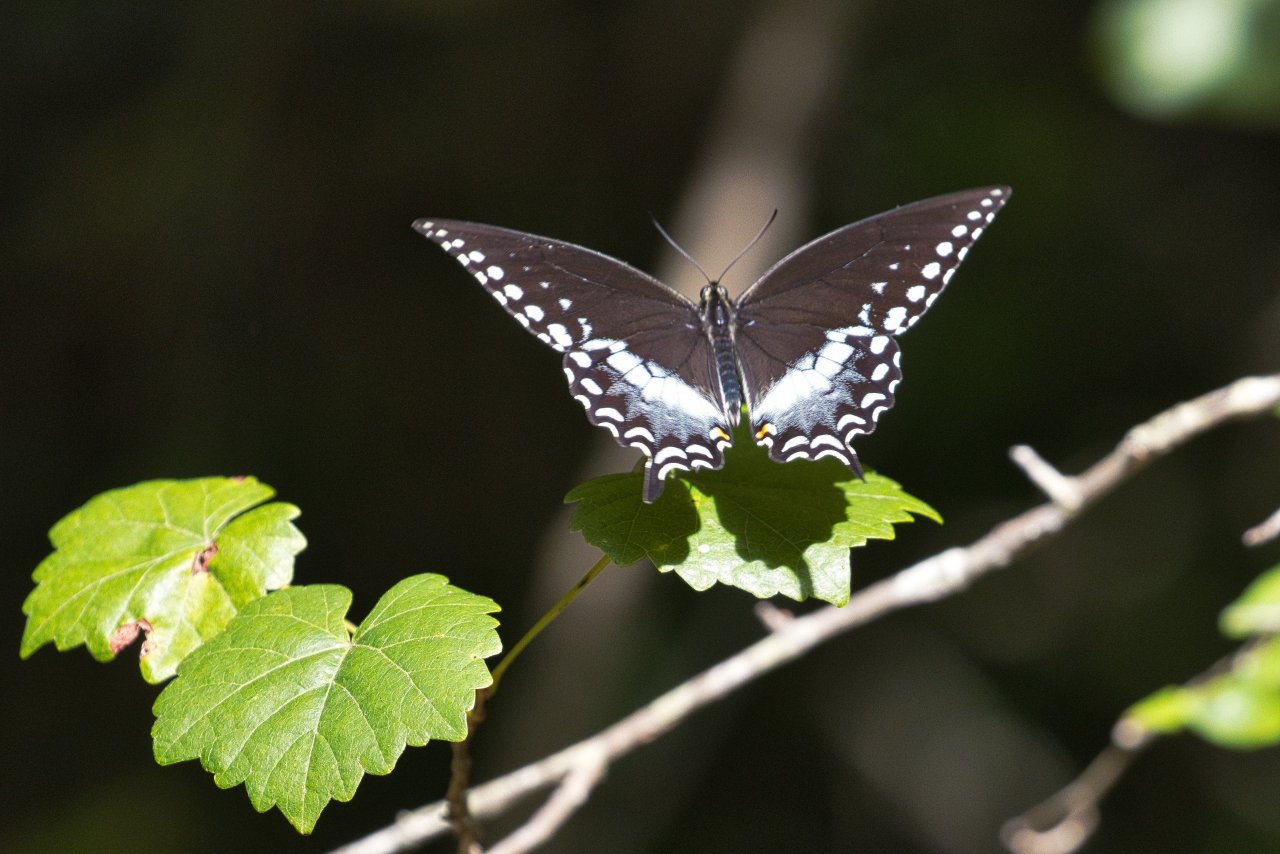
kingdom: Animalia
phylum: Arthropoda
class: Insecta
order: Lepidoptera
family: Papilionidae
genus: Pterourus
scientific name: Pterourus troilus
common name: Spicebush Swallowtail
